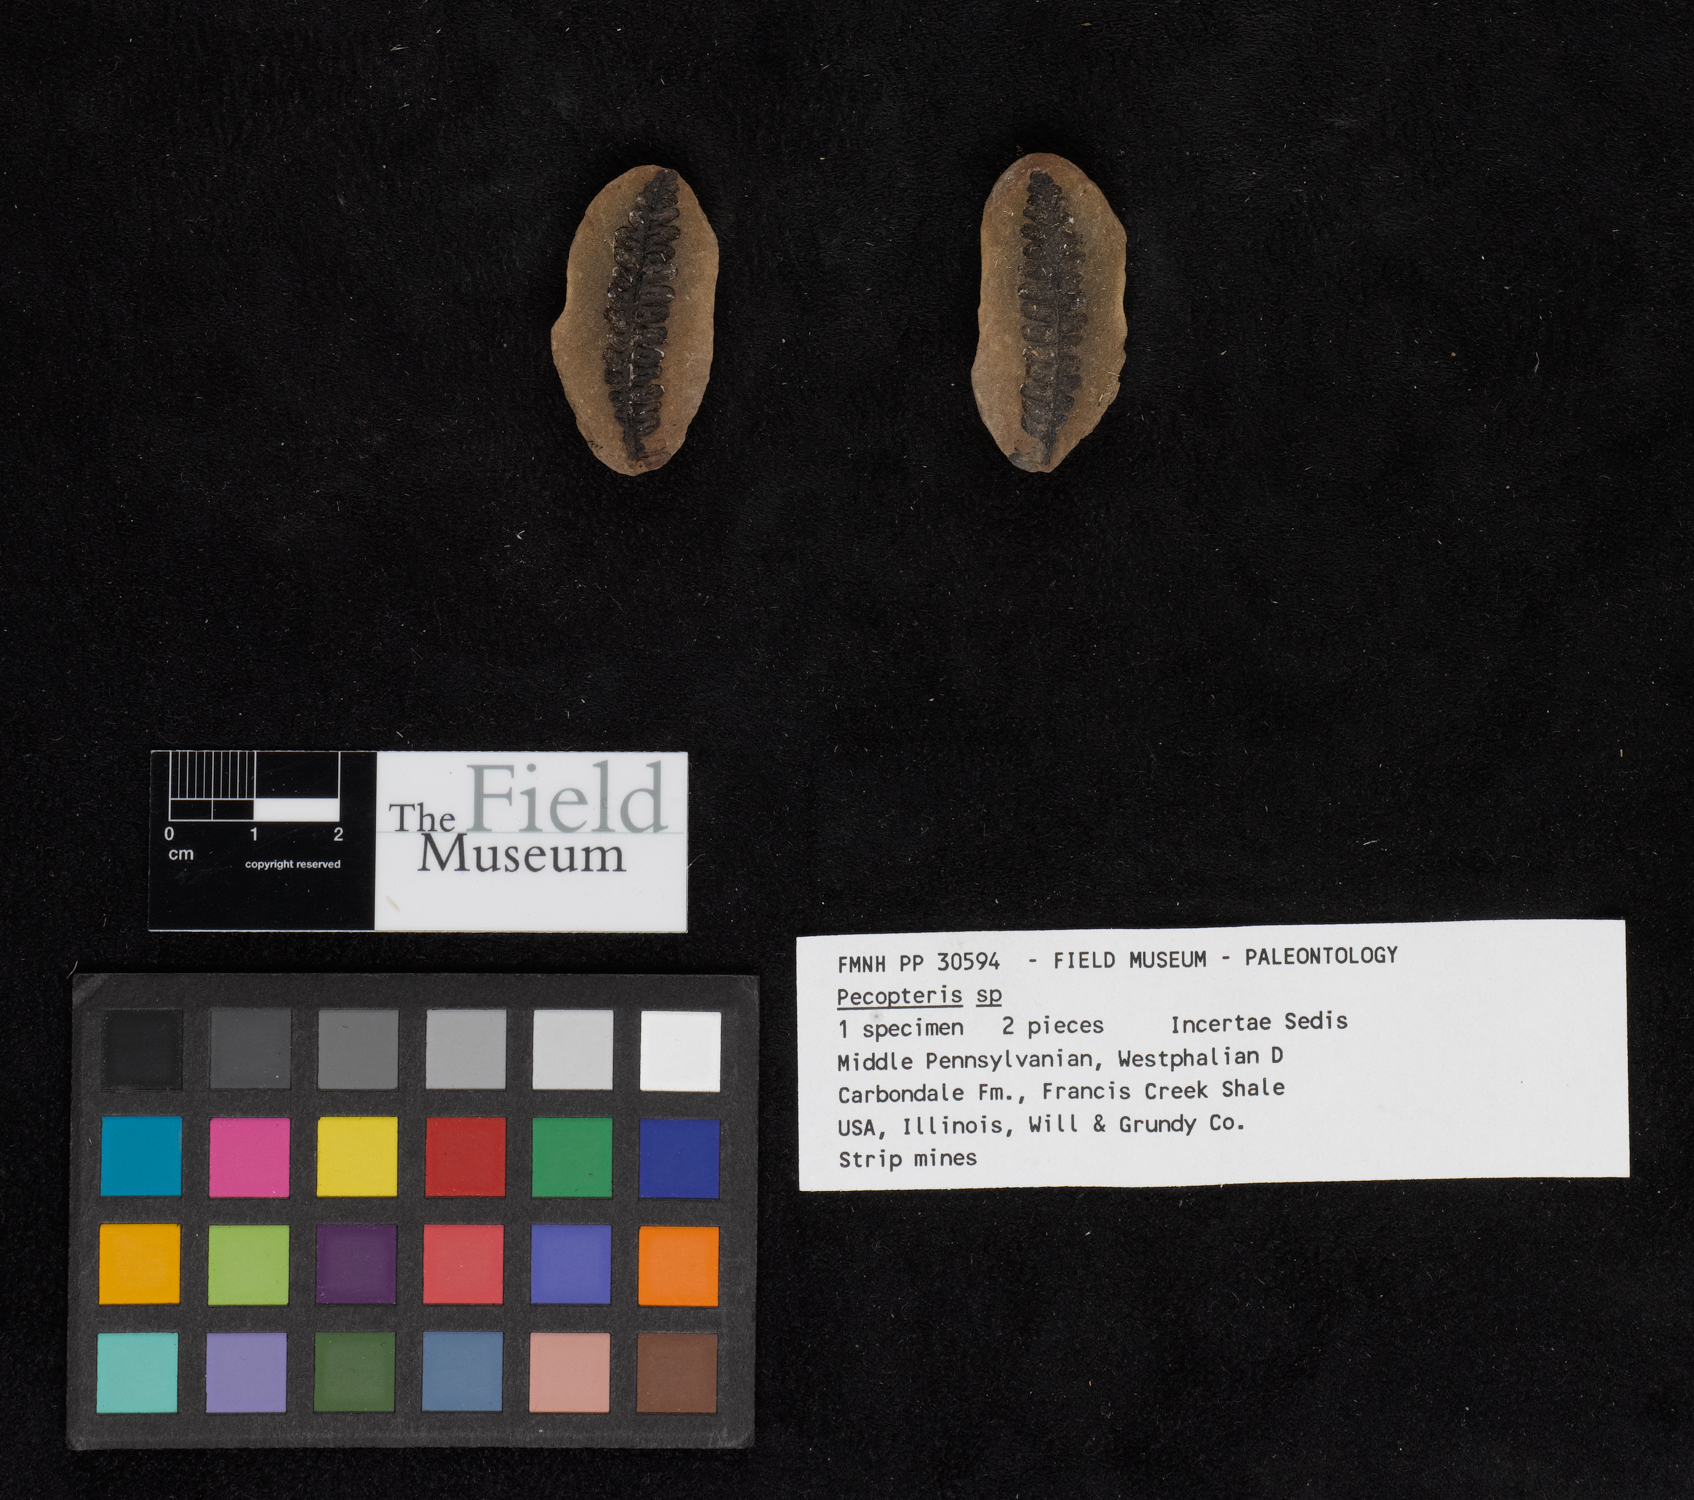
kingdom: Plantae
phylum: Tracheophyta
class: Polypodiopsida
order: Marattiales
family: Asterothecaceae
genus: Pecopteris
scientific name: Pecopteris
